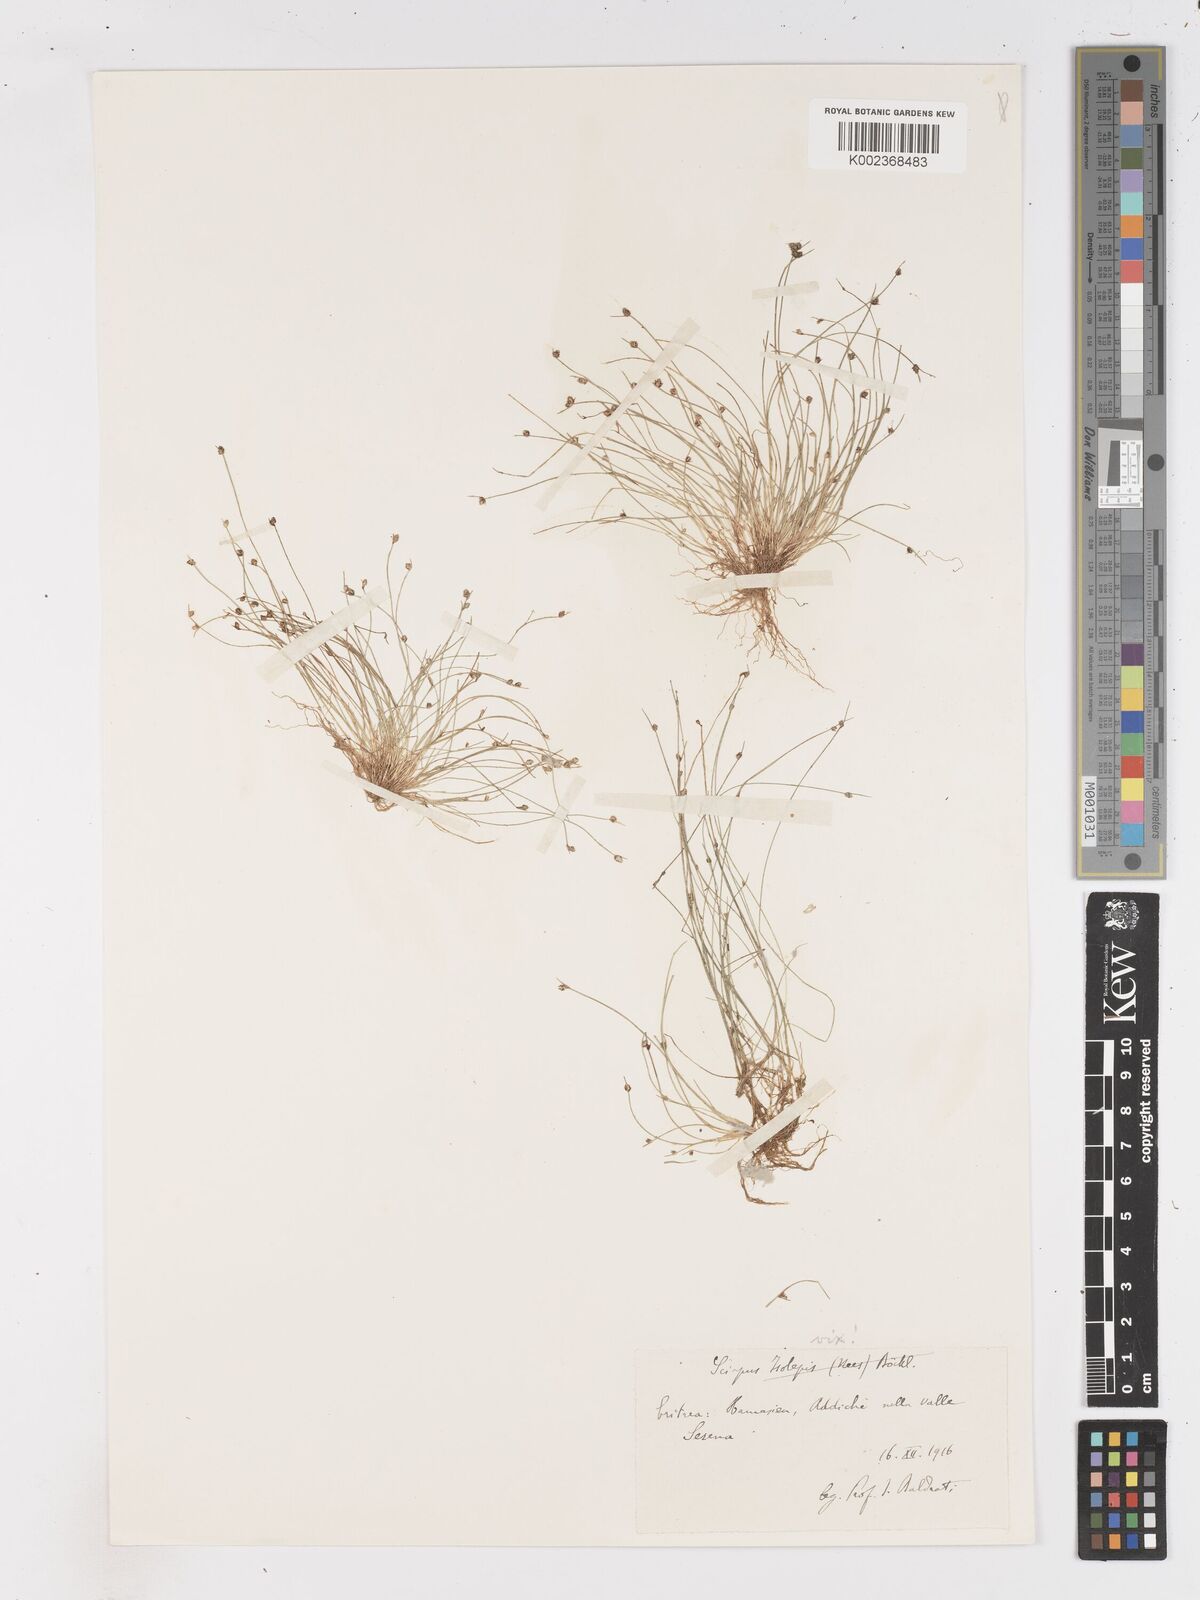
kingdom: Plantae
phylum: Tracheophyta
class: Liliopsida
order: Poales
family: Cyperaceae
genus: Isolepis
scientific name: Isolepis setacea
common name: Bristle club-rush
